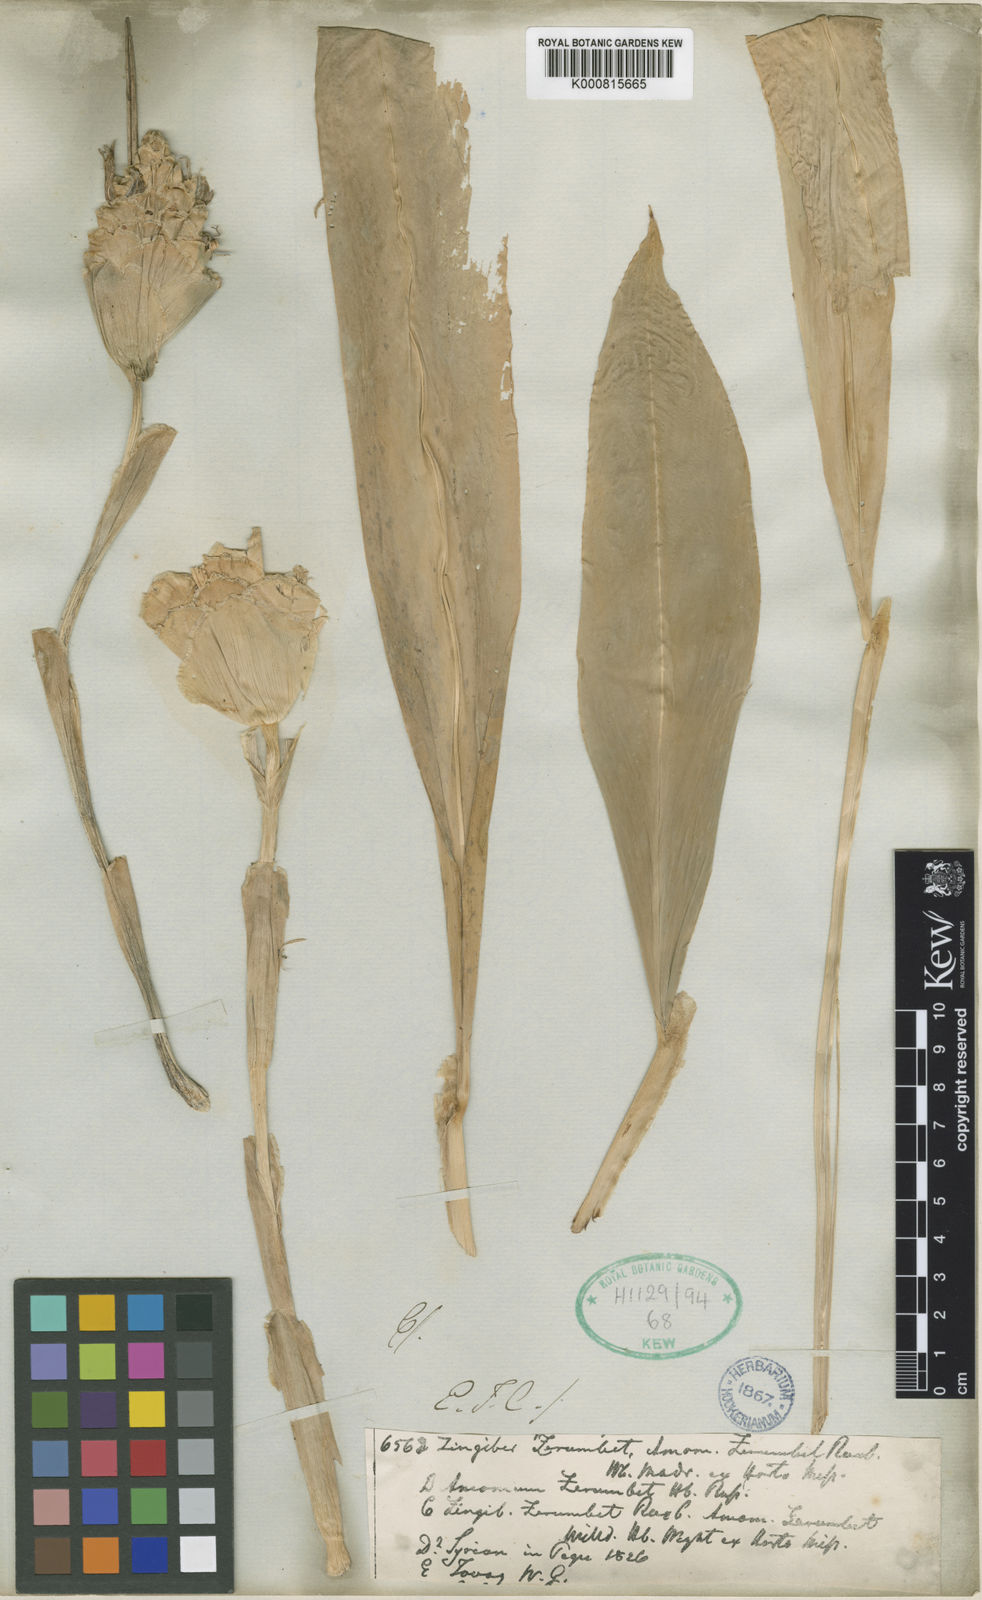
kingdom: Plantae
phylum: Tracheophyta
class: Liliopsida
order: Zingiberales
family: Zingiberaceae
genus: Zingiber
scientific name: Zingiber
